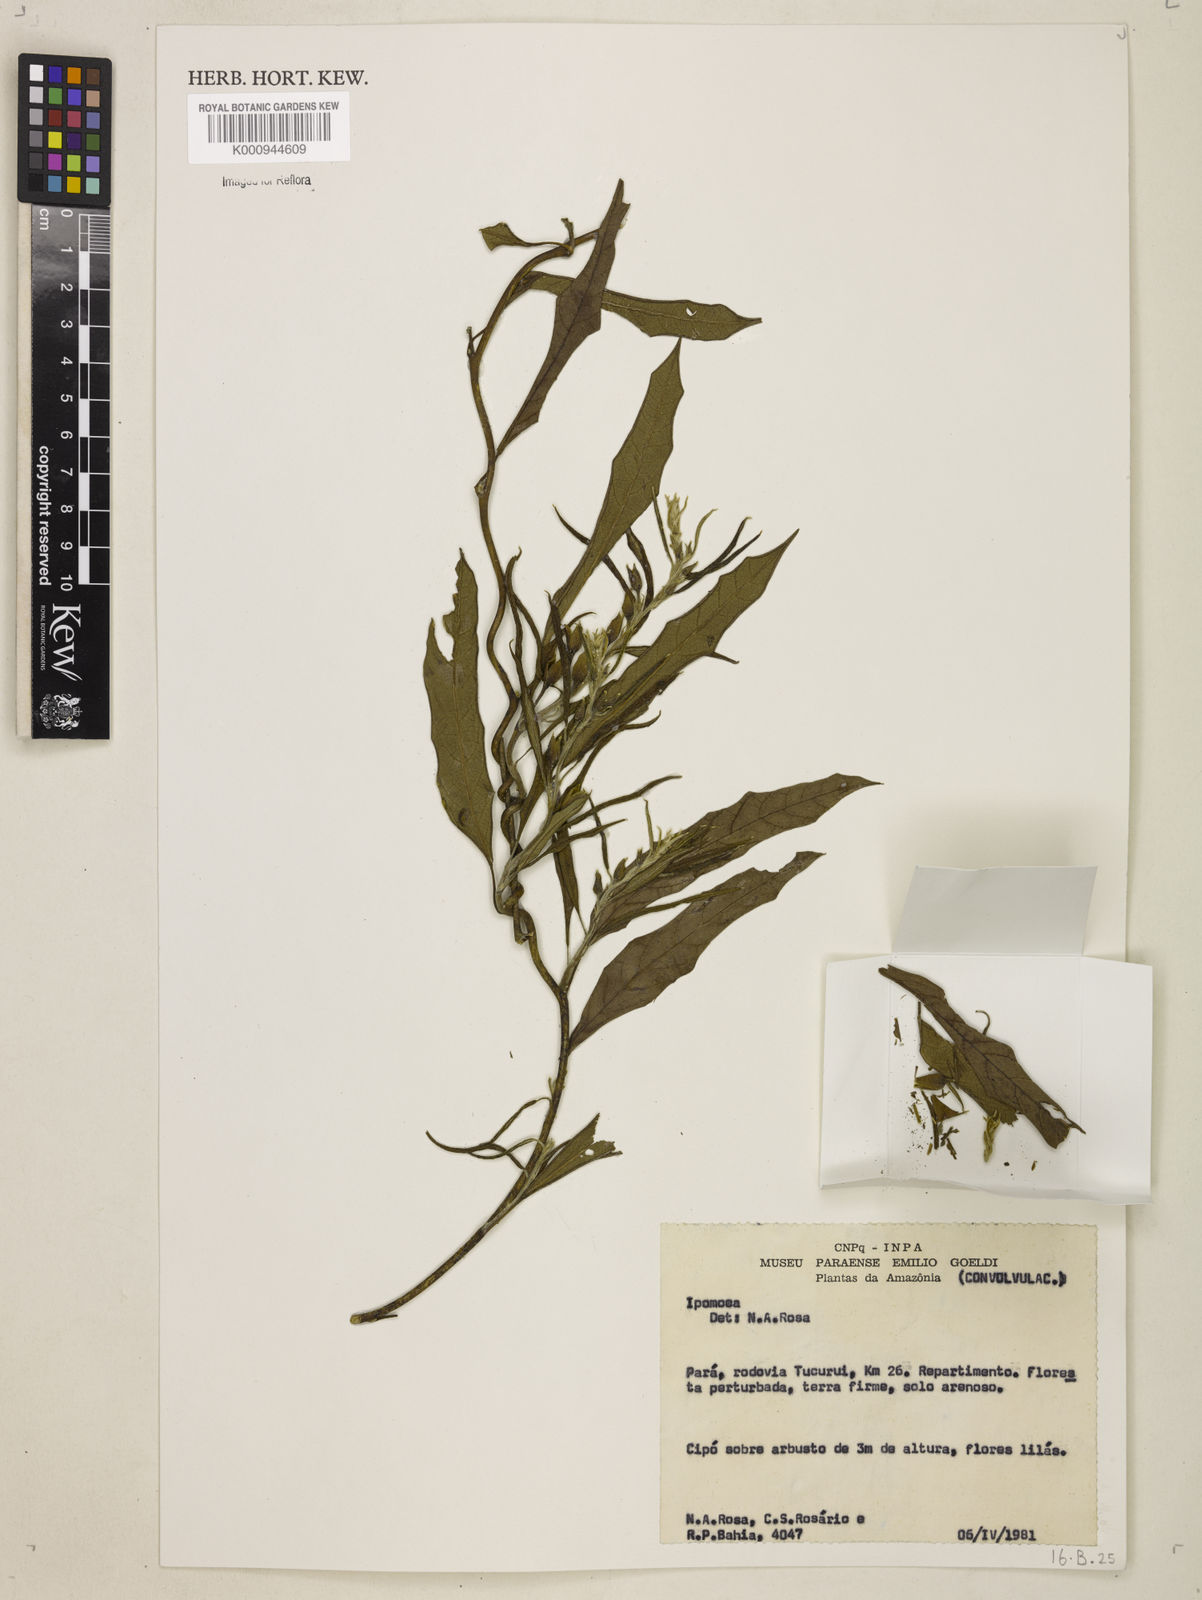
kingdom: Plantae
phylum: Tracheophyta
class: Magnoliopsida
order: Solanales
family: Convolvulaceae
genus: Ipomoea
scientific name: Ipomoea
